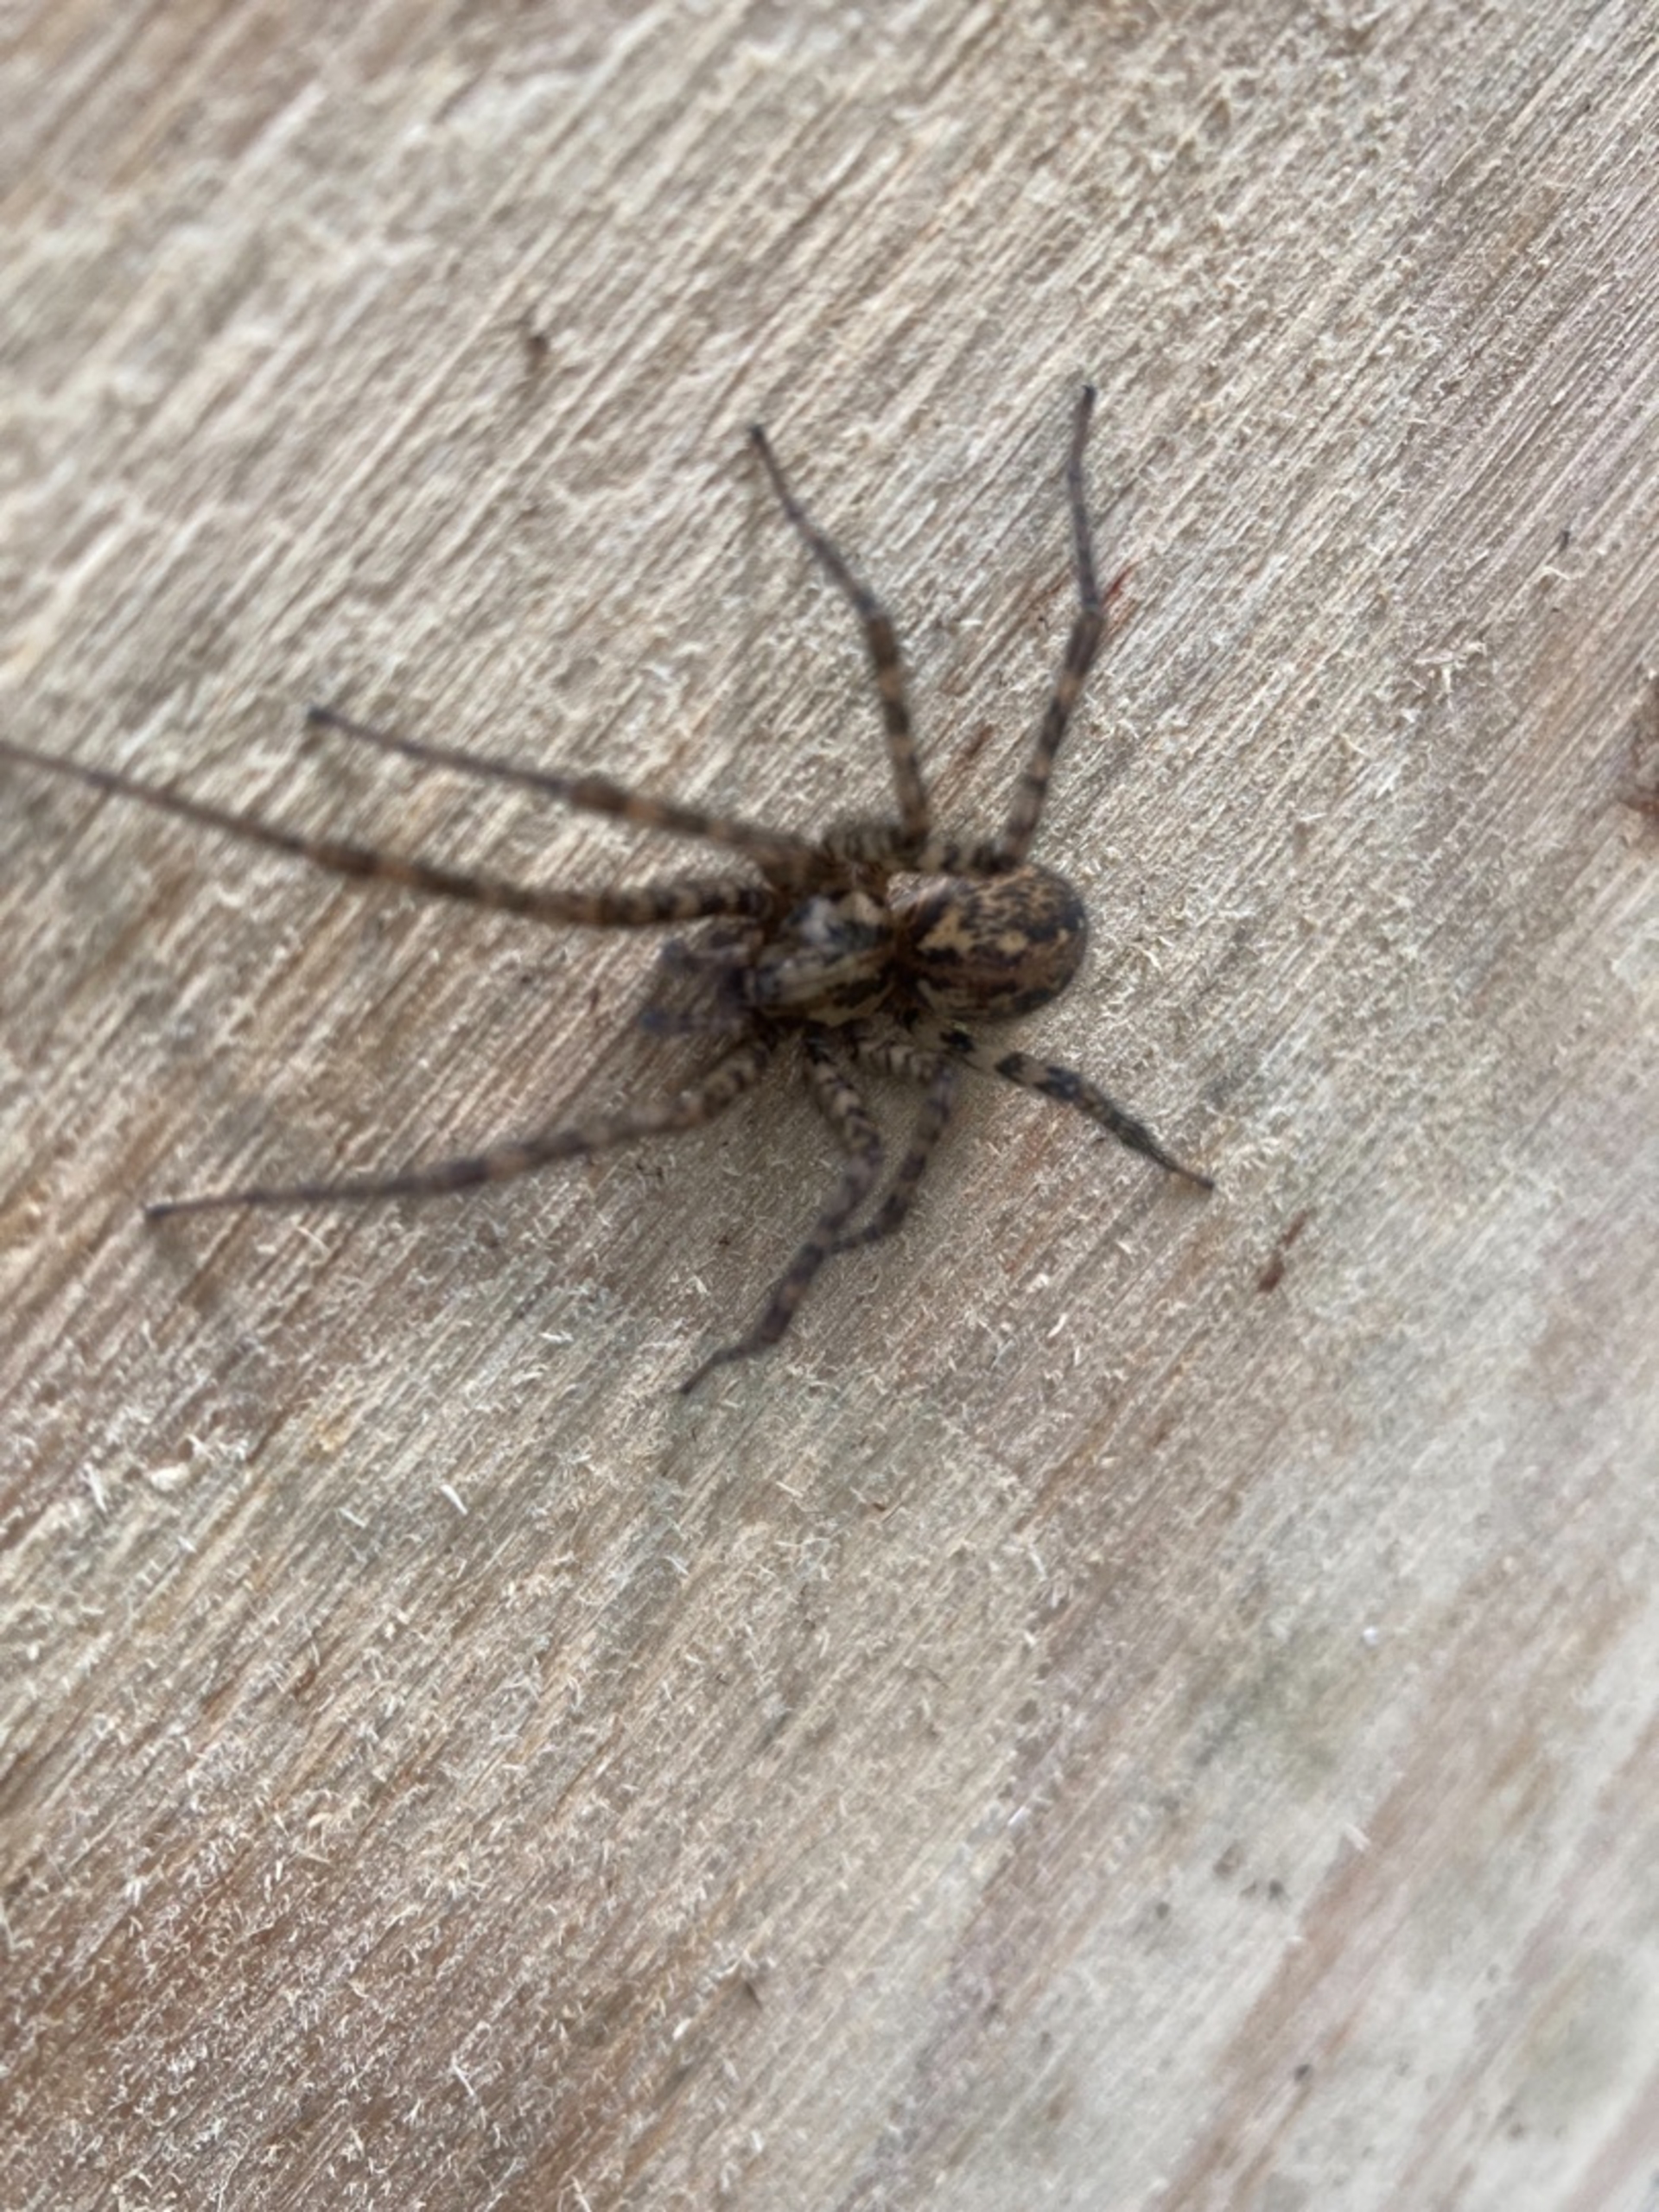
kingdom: Animalia
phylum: Arthropoda
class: Arachnida
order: Araneae
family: Agelenidae
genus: Tegenaria
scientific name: Tegenaria ferruginea
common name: Rustrød husedderkop
